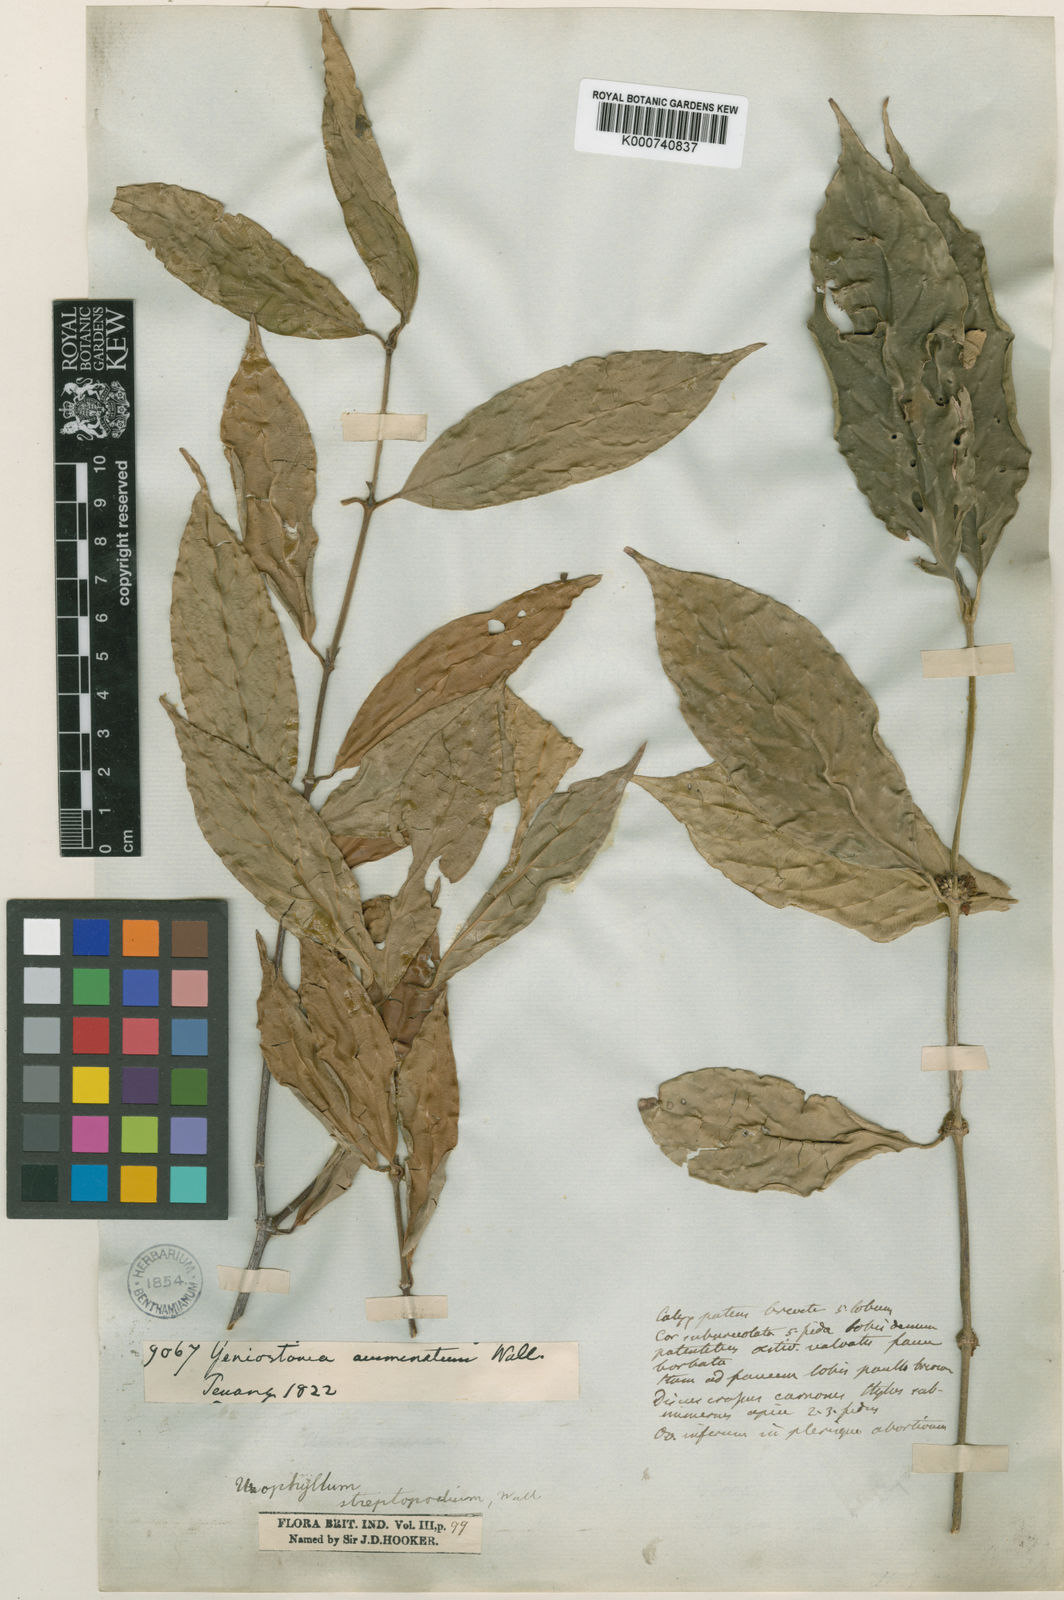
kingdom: Plantae
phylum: Tracheophyta
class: Magnoliopsida
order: Gentianales
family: Rubiaceae
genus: Urophyllum
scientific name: Urophyllum
